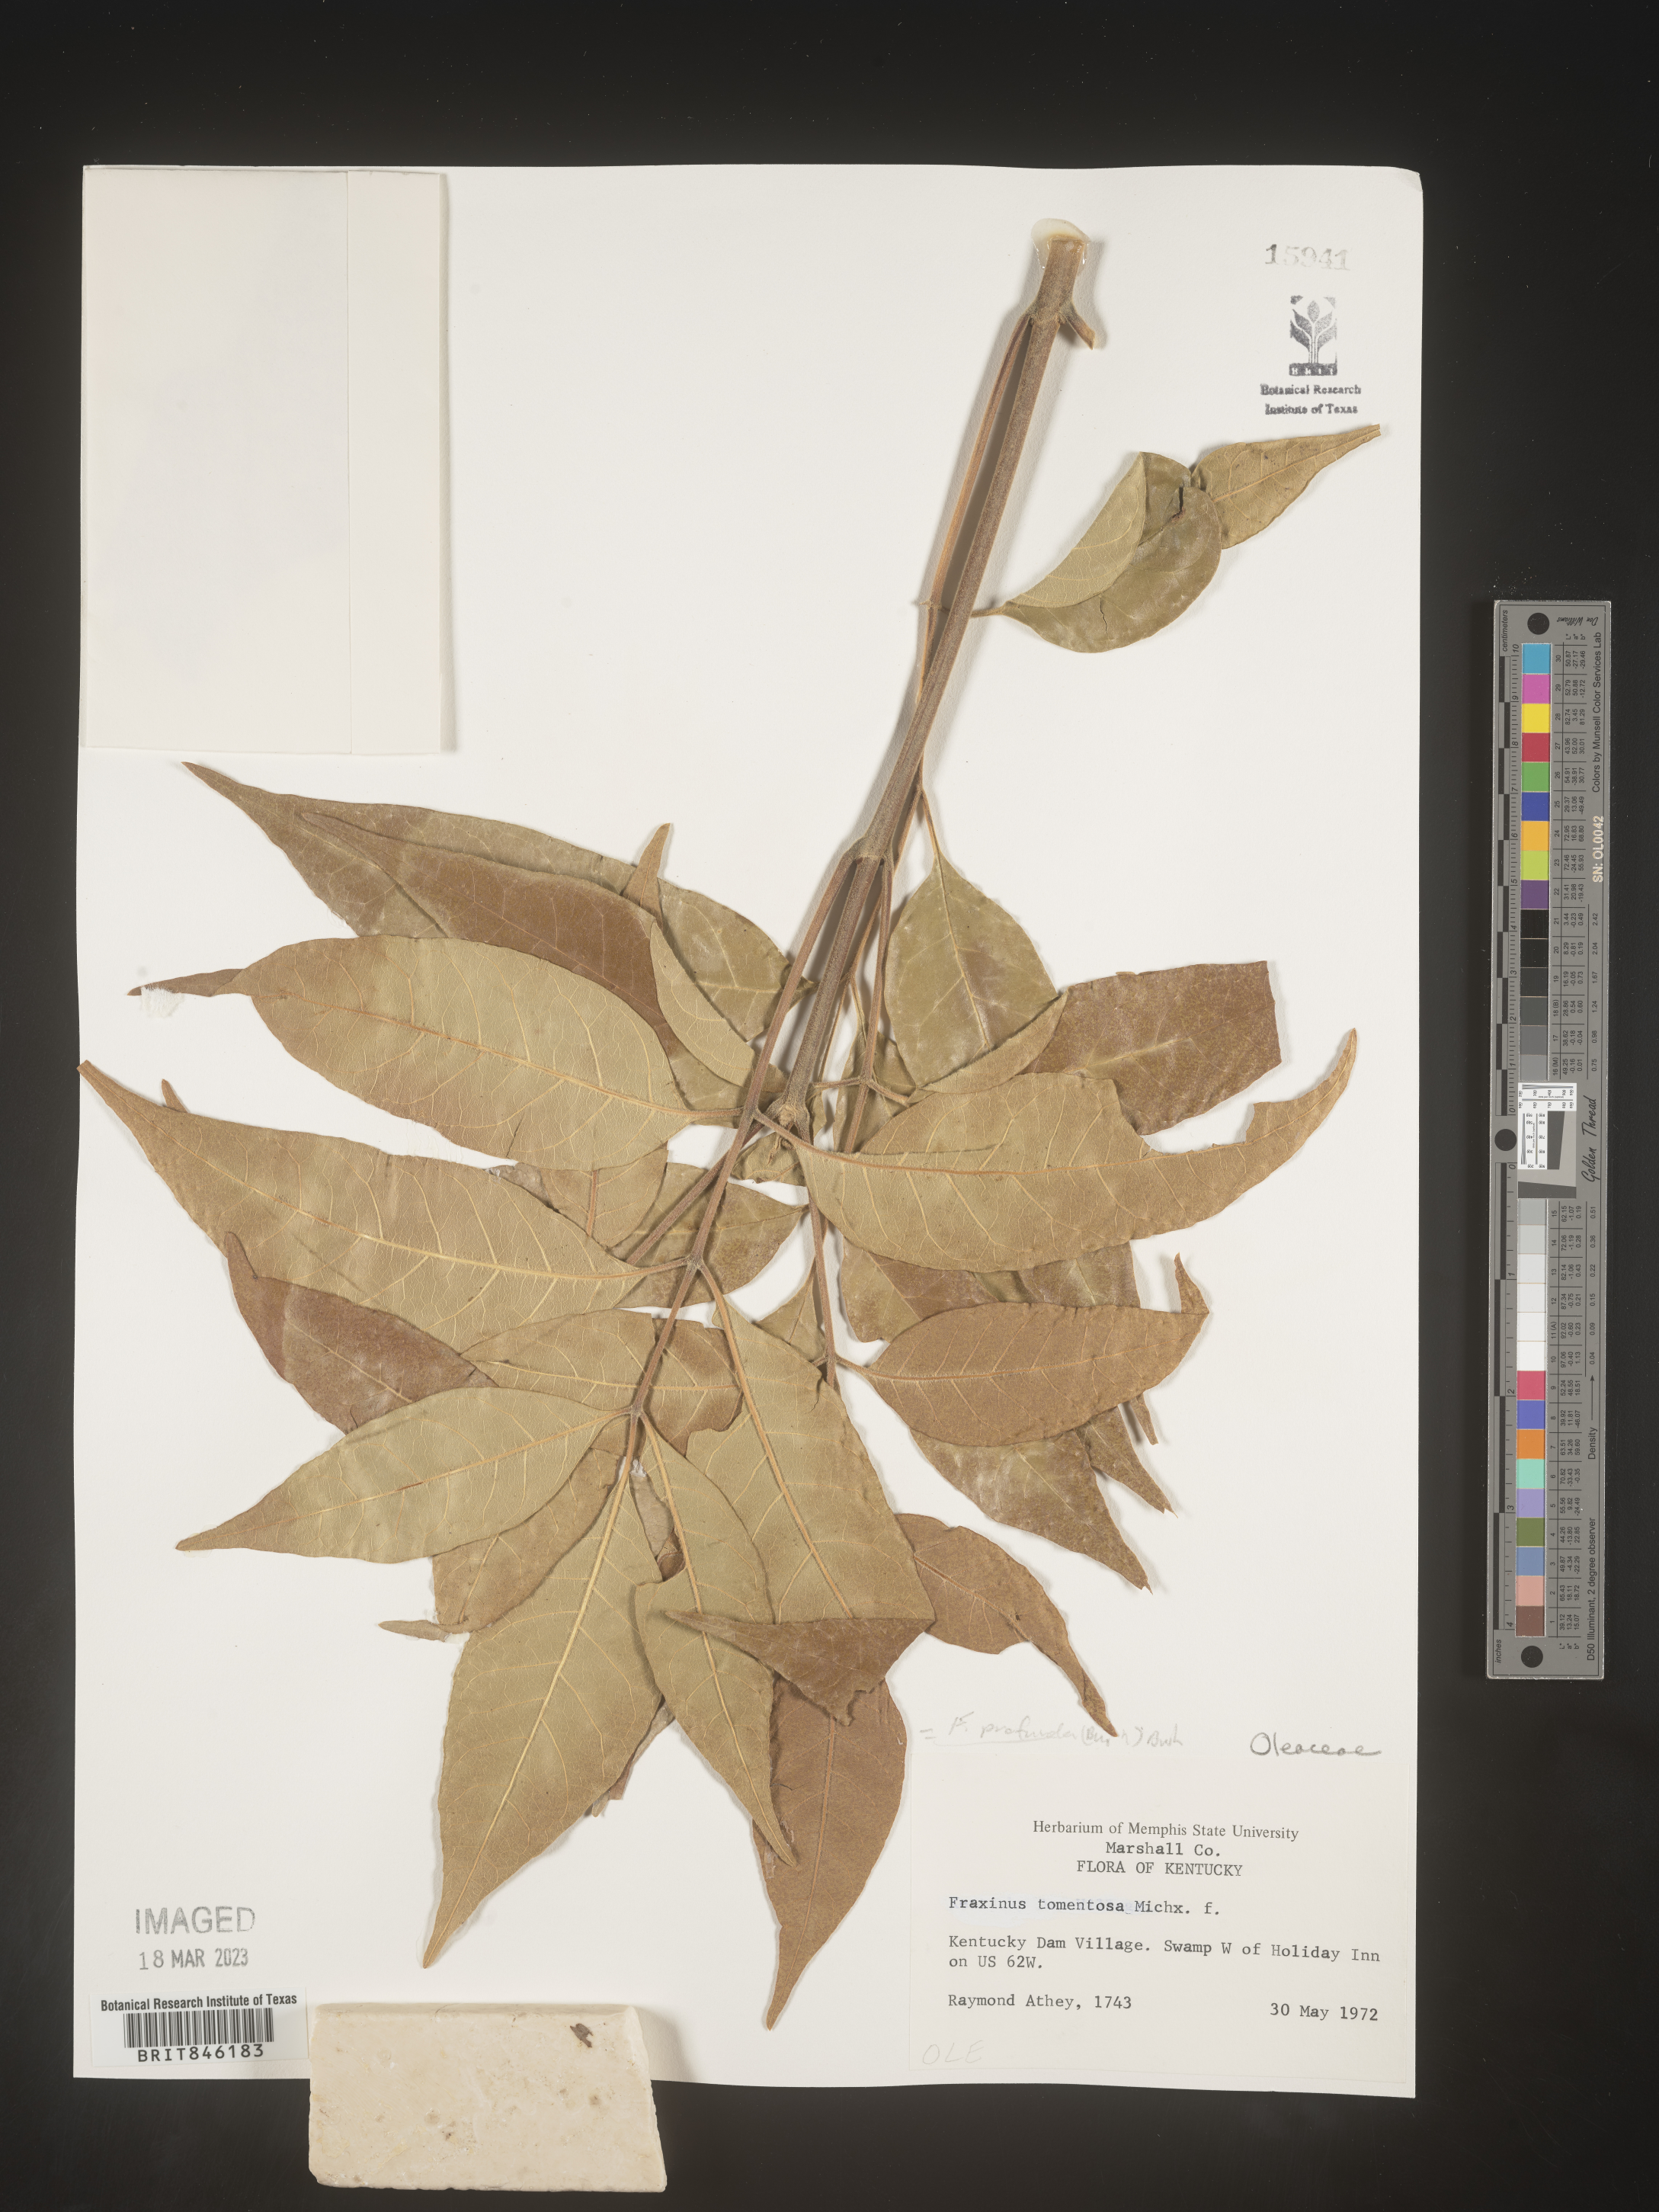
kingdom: Plantae
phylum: Tracheophyta
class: Magnoliopsida
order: Lamiales
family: Oleaceae
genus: Fraxinus
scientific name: Fraxinus profunda
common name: Pumpkin ash
